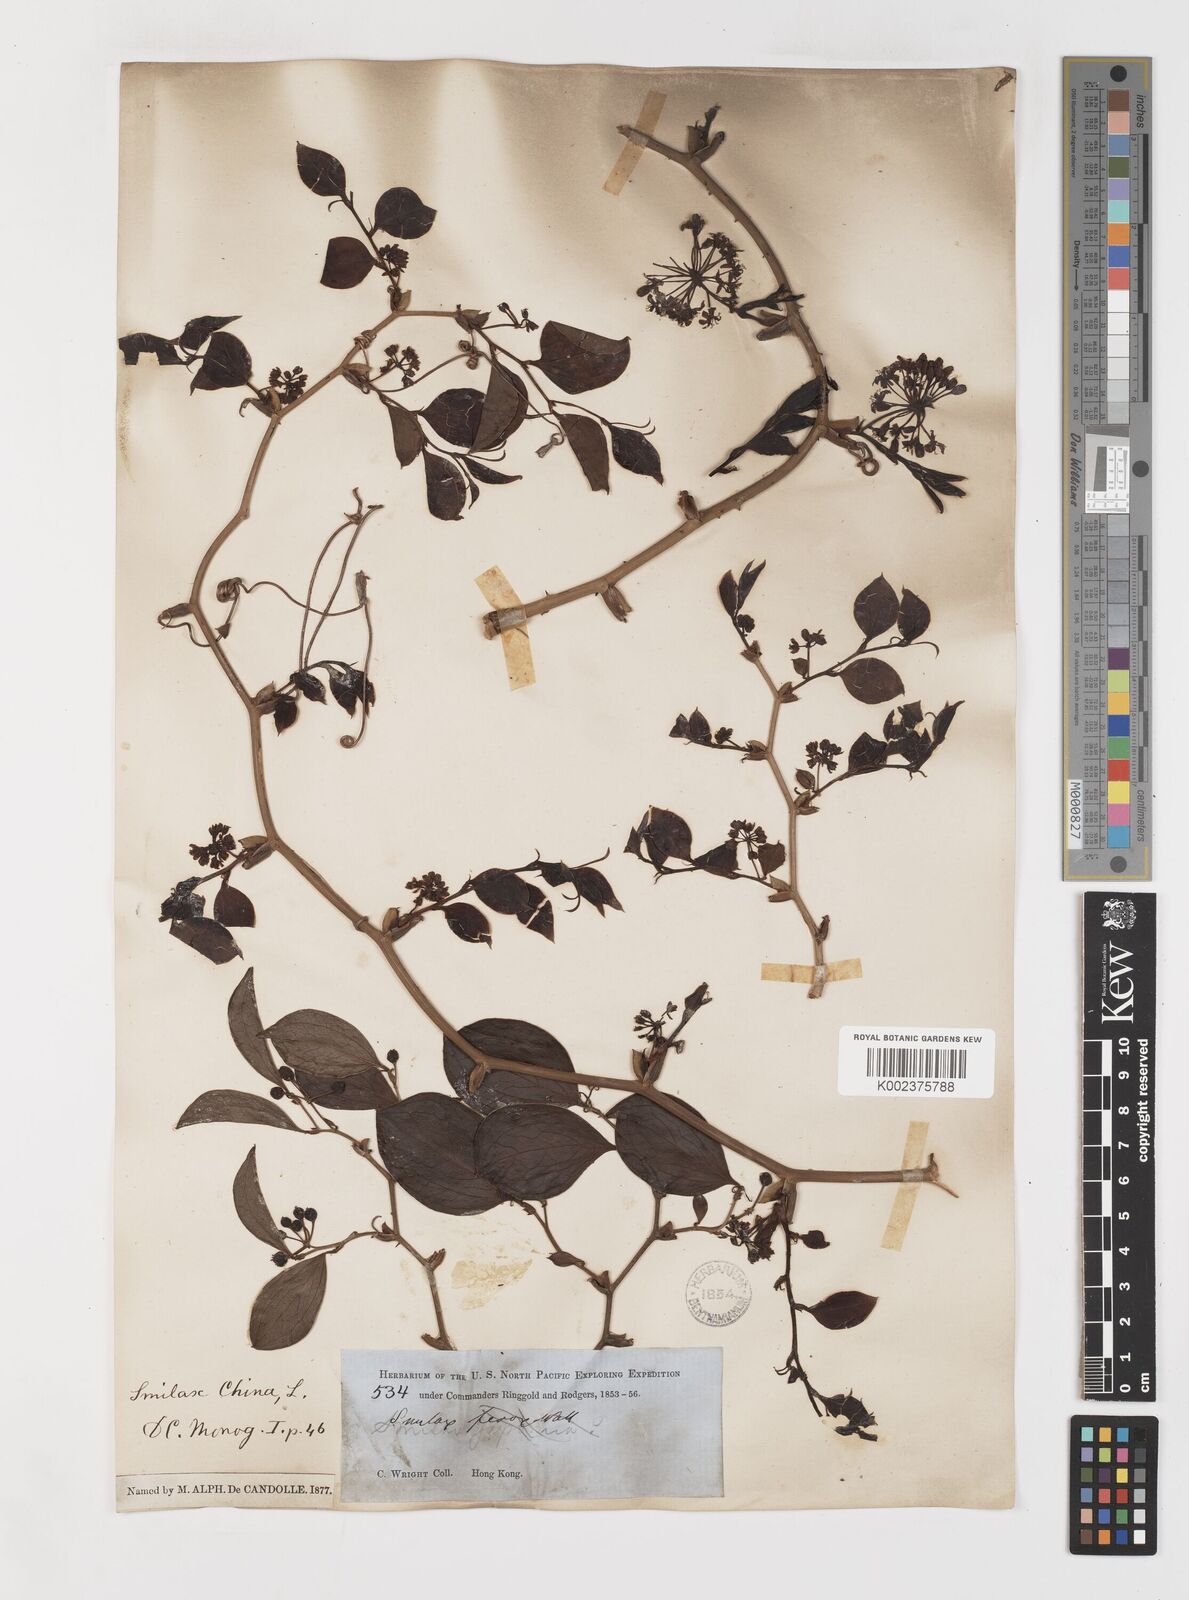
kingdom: Plantae
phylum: Tracheophyta
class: Liliopsida
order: Liliales
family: Smilacaceae
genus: Smilax
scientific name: Smilax china
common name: Chinaroot
